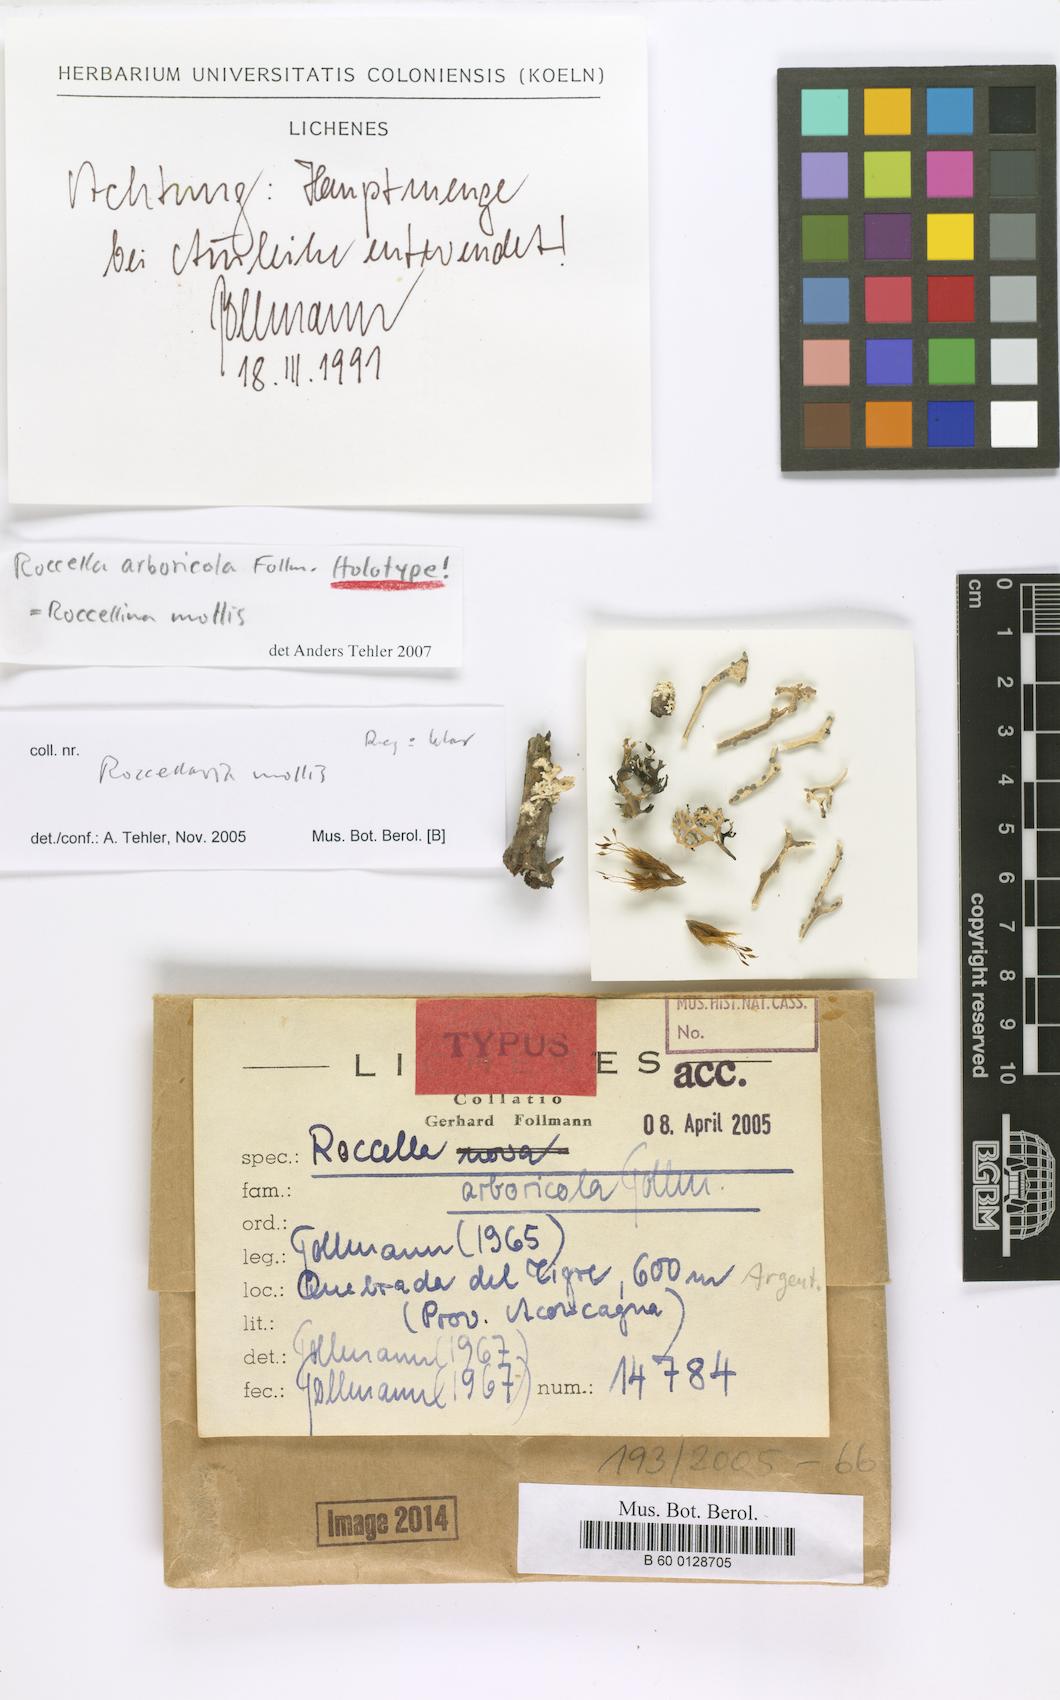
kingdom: Fungi
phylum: Ascomycota
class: Arthoniomycetes
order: Arthoniales
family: Roccellaceae
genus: Roccellina
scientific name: Roccellina arboricola
